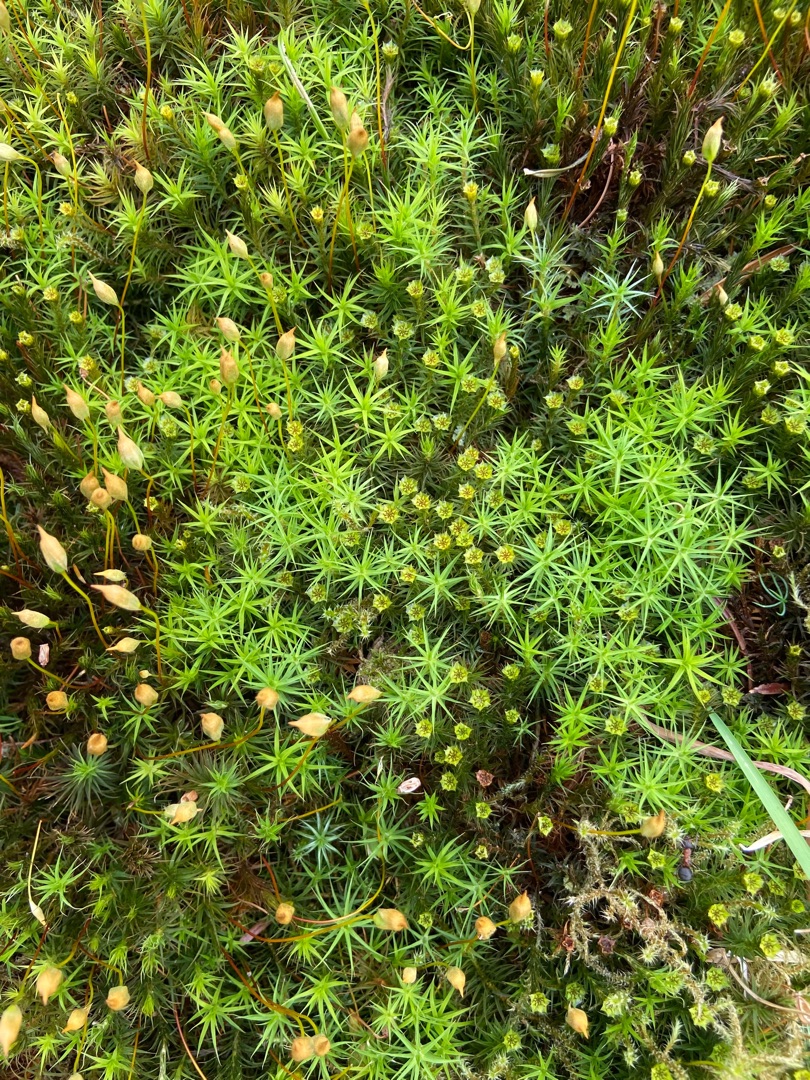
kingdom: Plantae
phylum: Bryophyta
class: Polytrichopsida
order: Polytrichales
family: Polytrichaceae
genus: Polytrichum
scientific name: Polytrichum formosum
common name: Skov-jomfruhår
